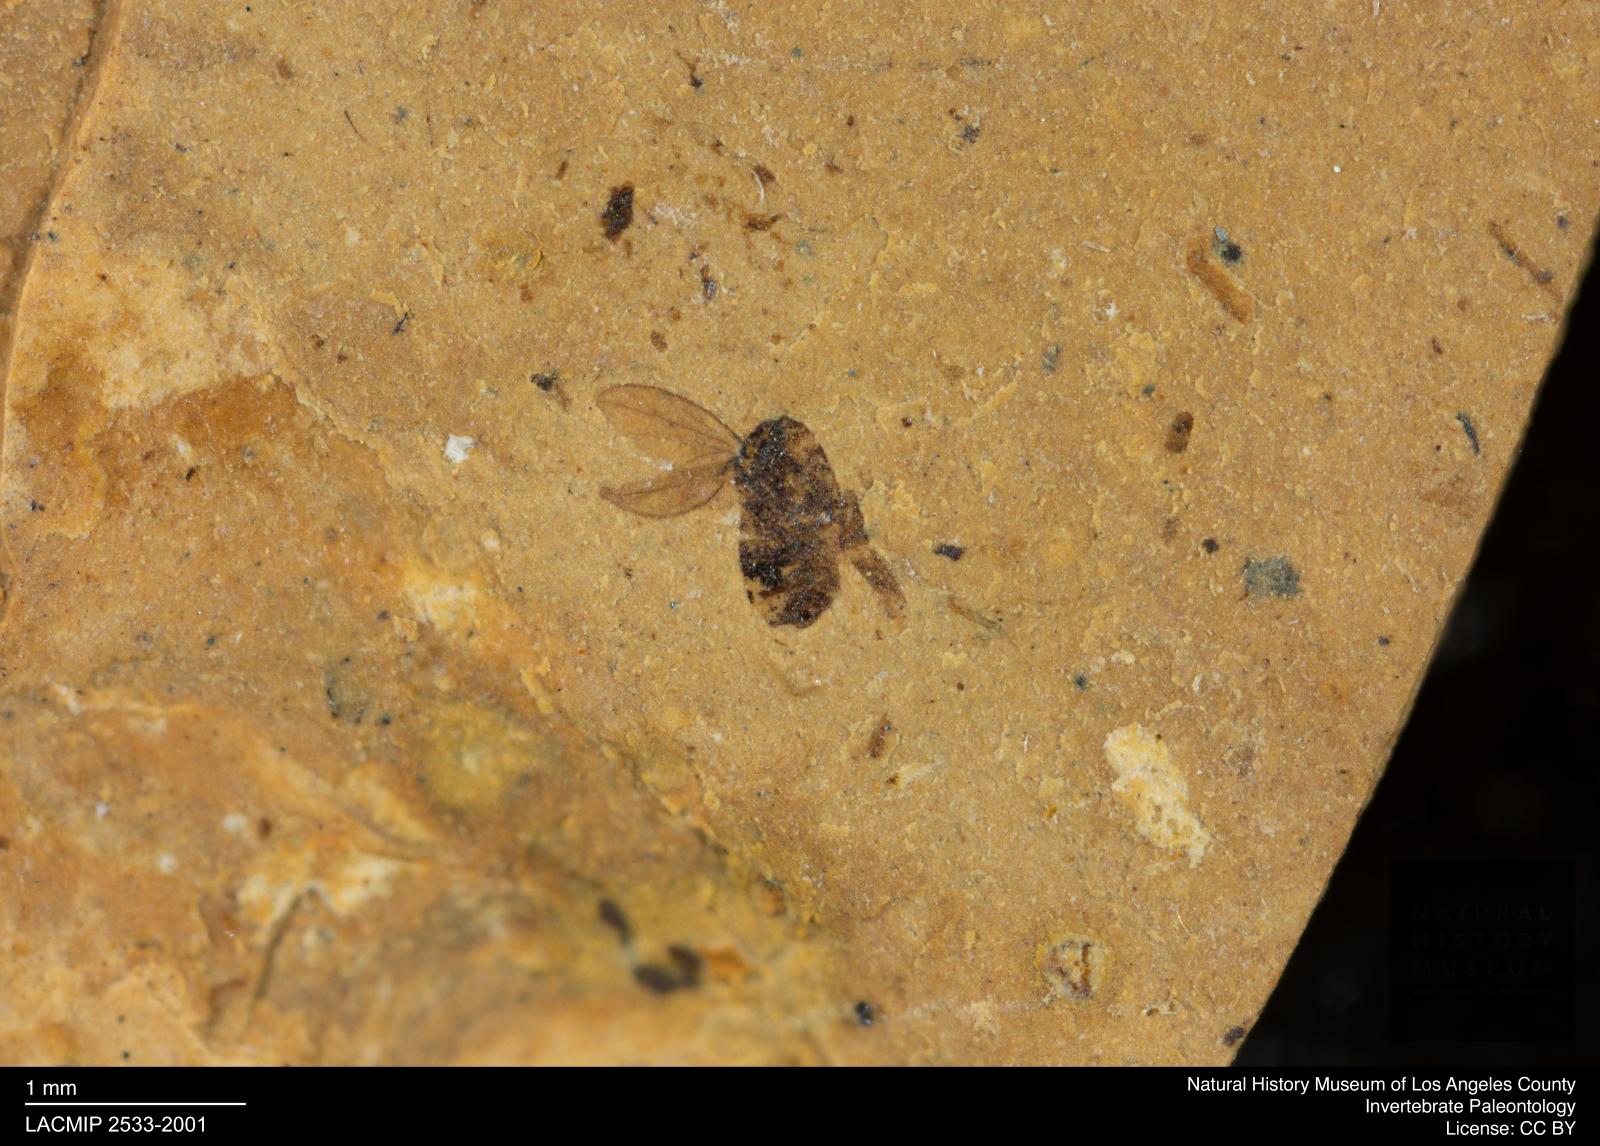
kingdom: Animalia
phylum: Arthropoda
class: Insecta
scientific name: Insecta
